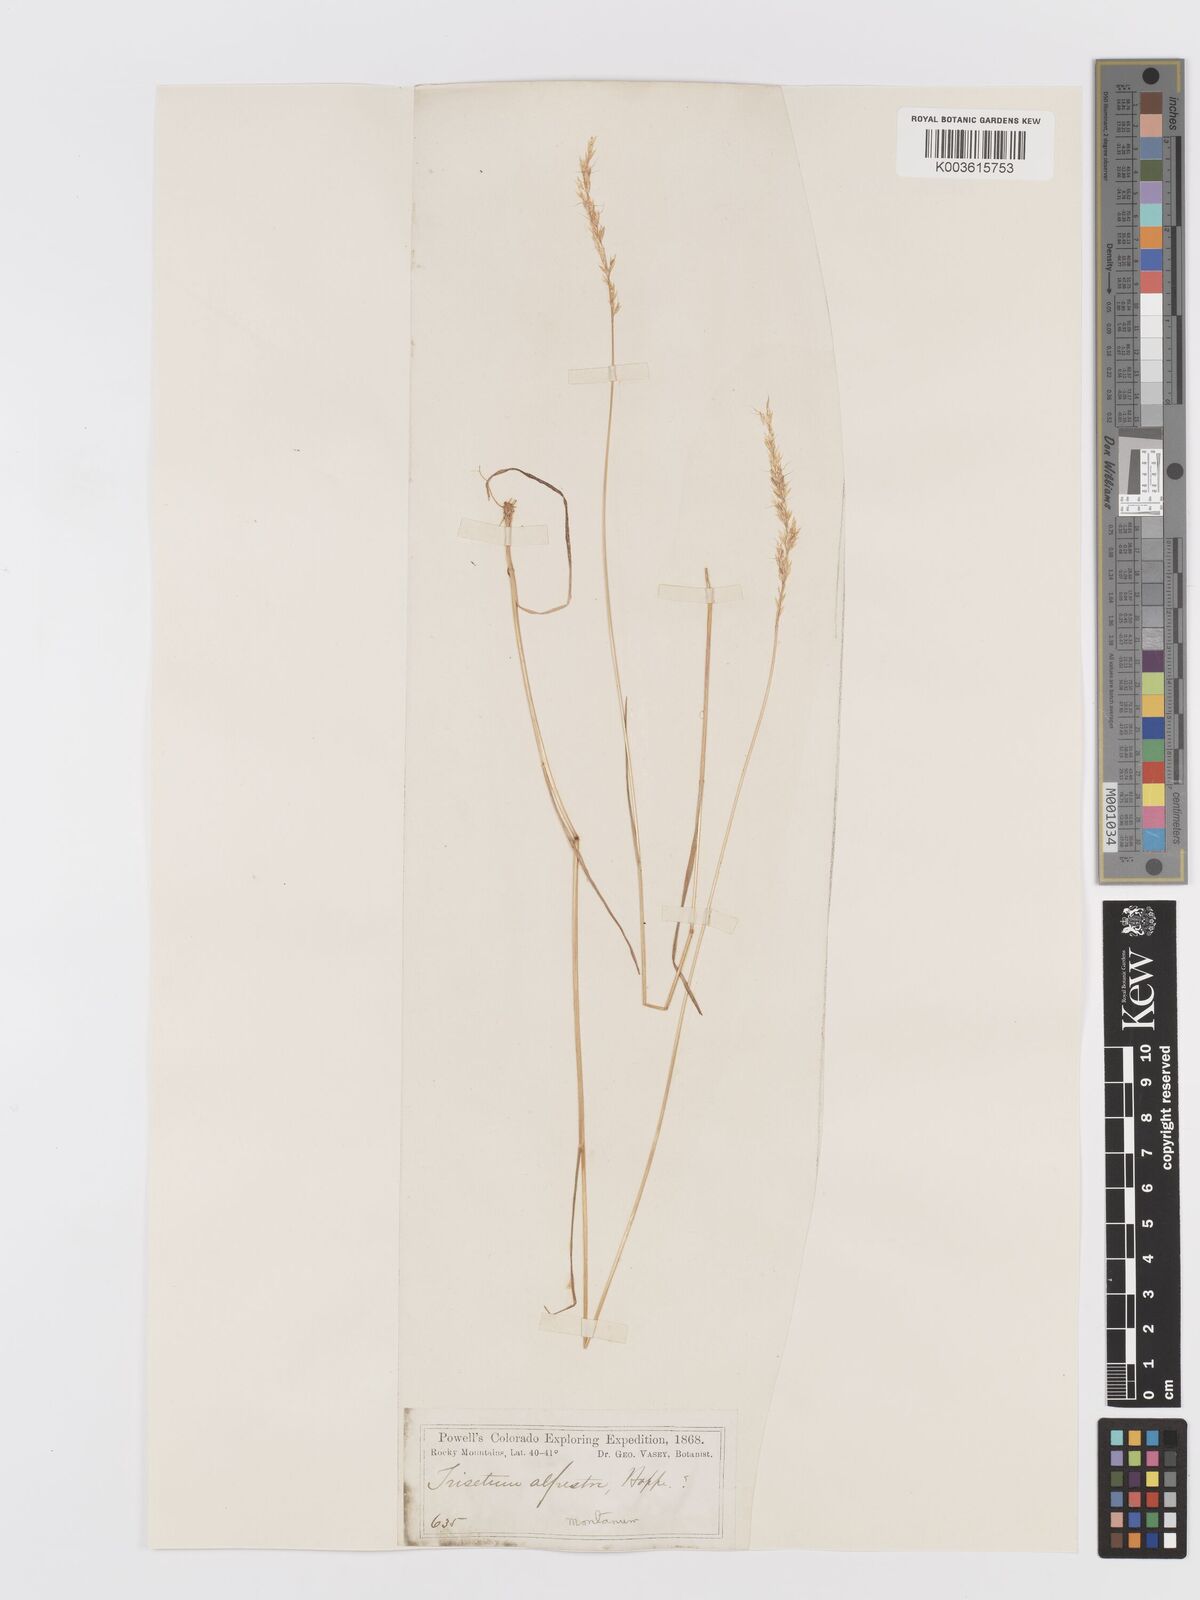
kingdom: Plantae
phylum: Tracheophyta
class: Liliopsida
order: Poales
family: Poaceae
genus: Koeleria
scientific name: Koeleria vaseyi
